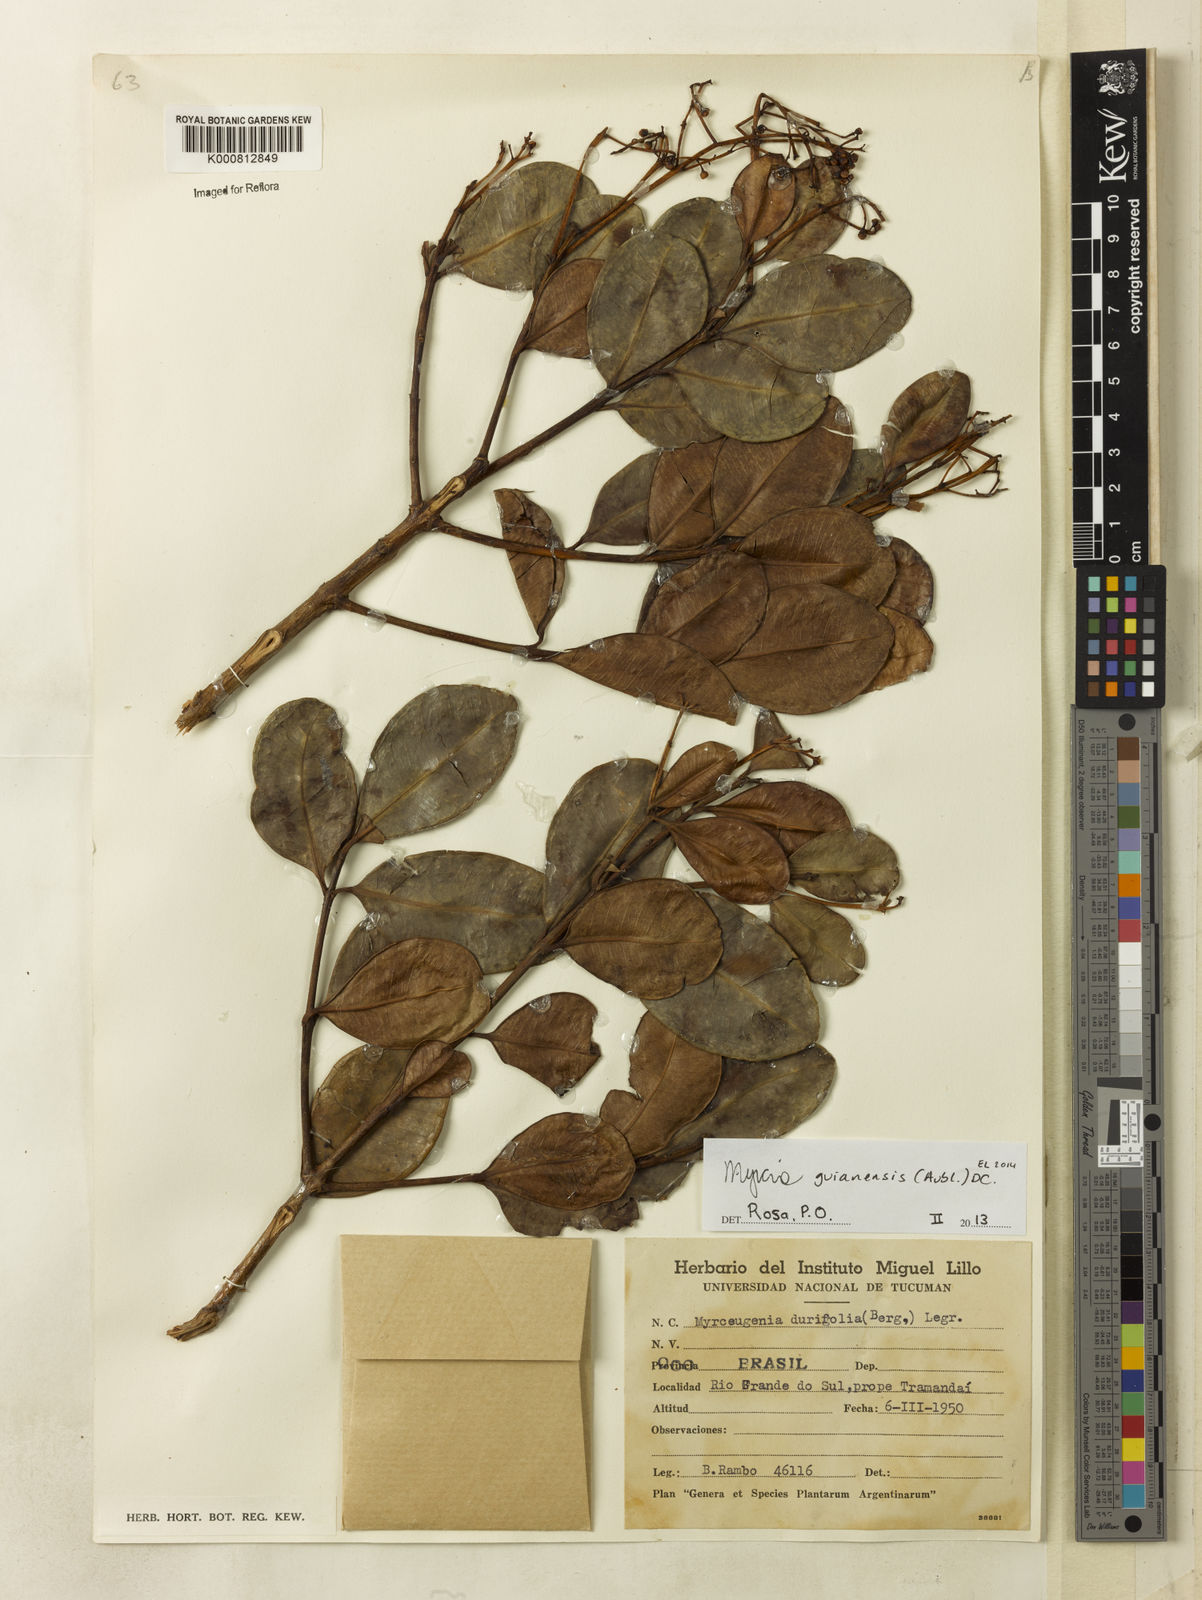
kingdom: Plantae
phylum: Tracheophyta
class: Magnoliopsida
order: Myrtales
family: Myrtaceae
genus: Myrcia
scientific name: Myrcia glabra
